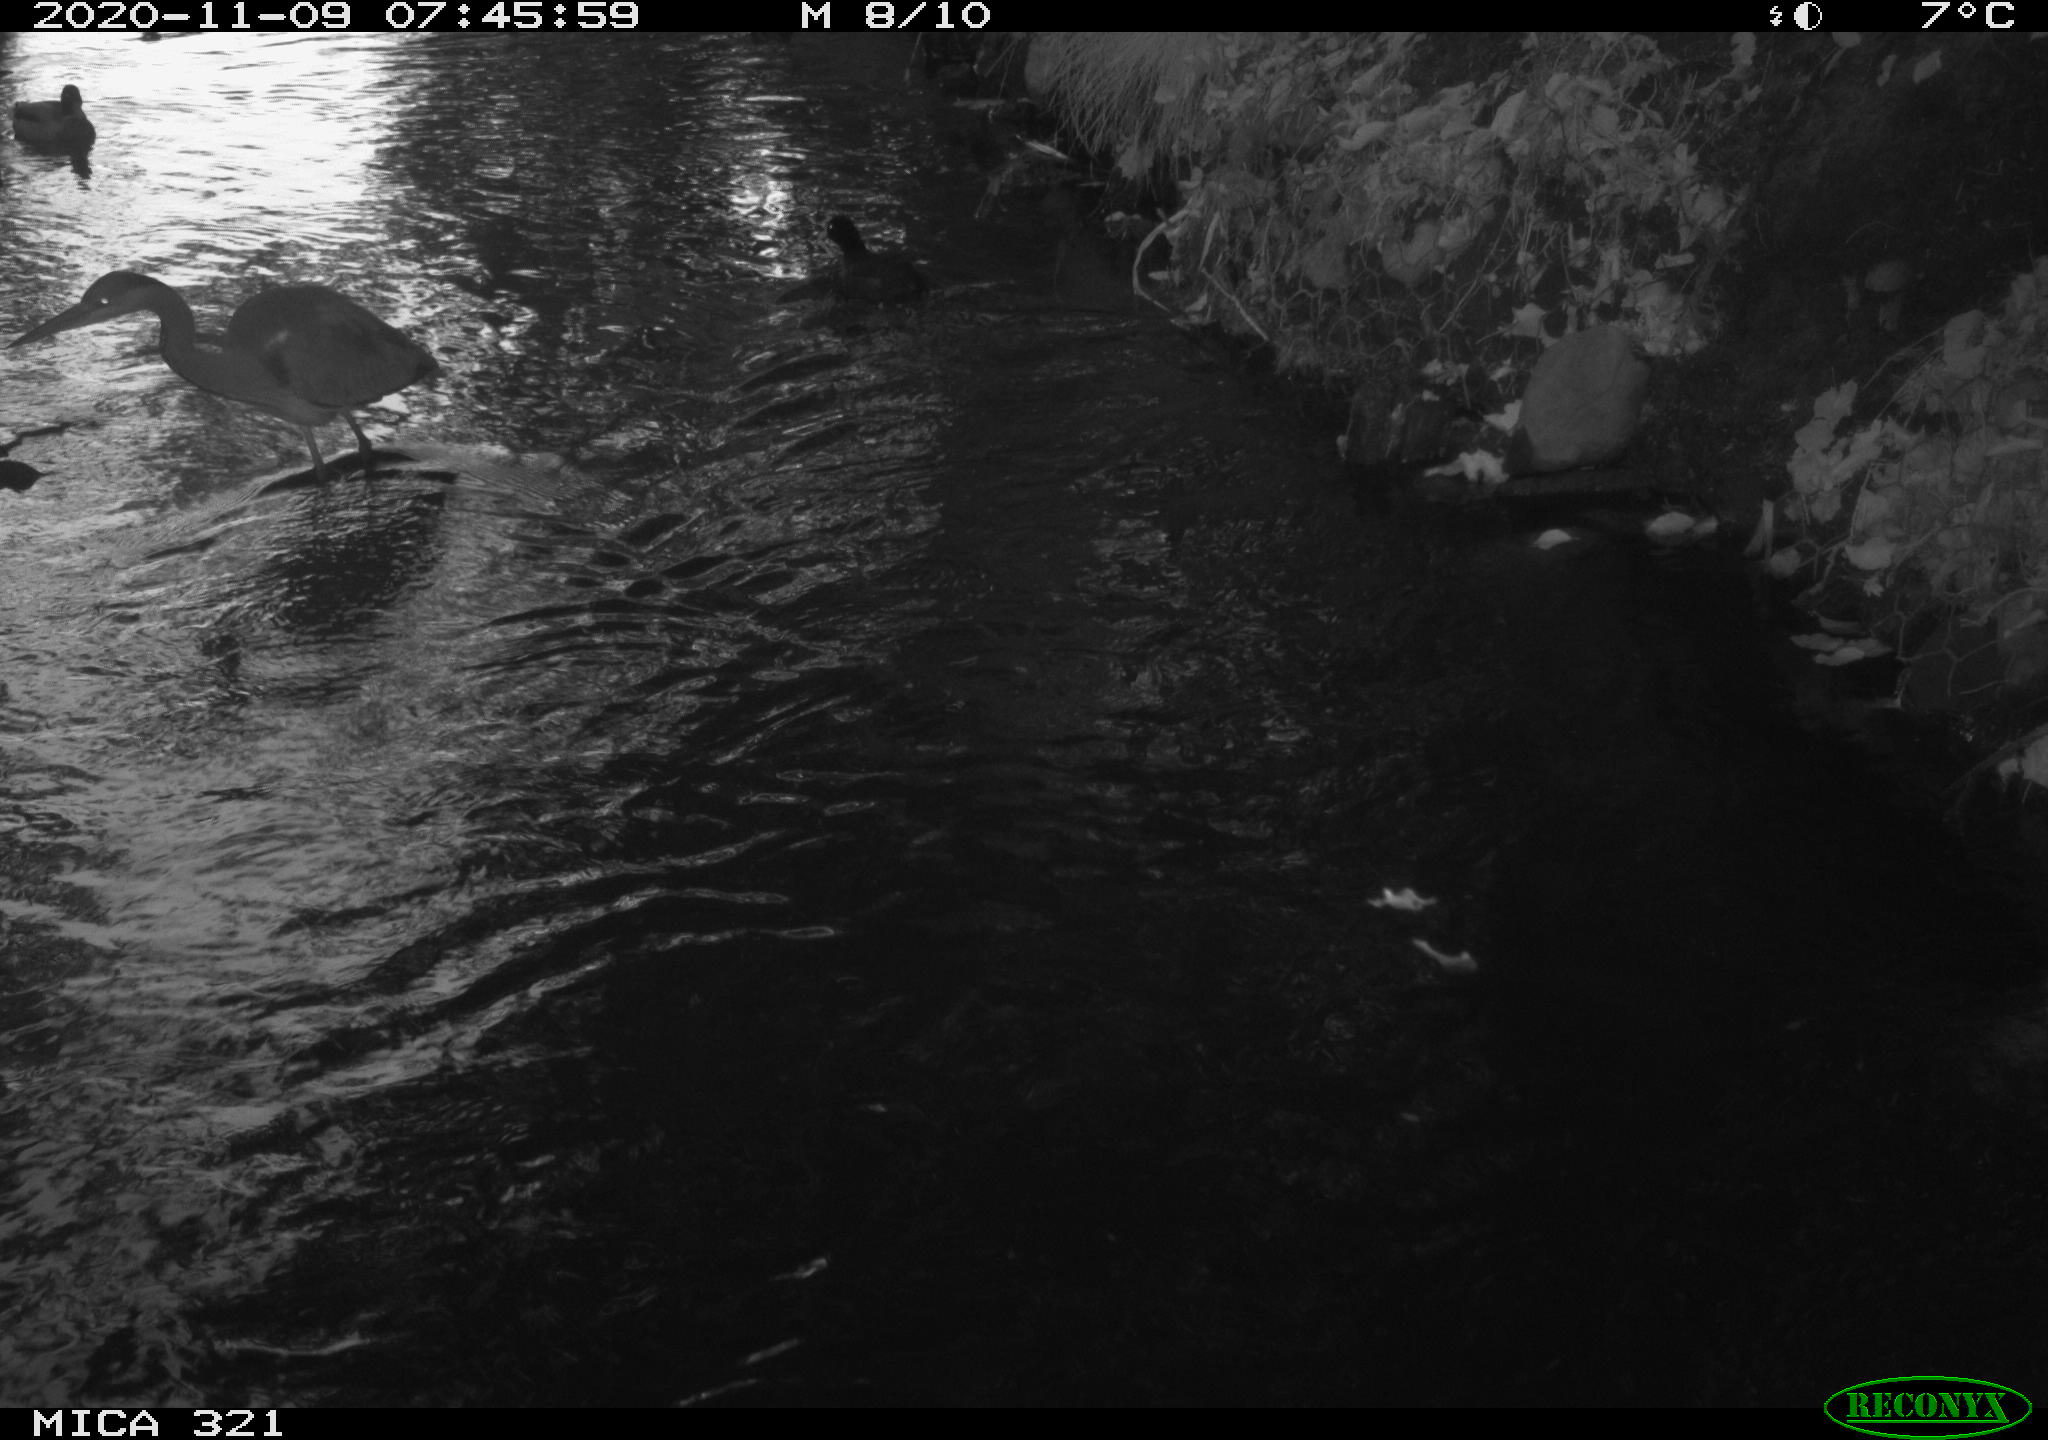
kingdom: Animalia
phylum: Chordata
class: Aves
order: Anseriformes
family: Anatidae
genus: Anas
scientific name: Anas platyrhynchos
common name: Mallard
